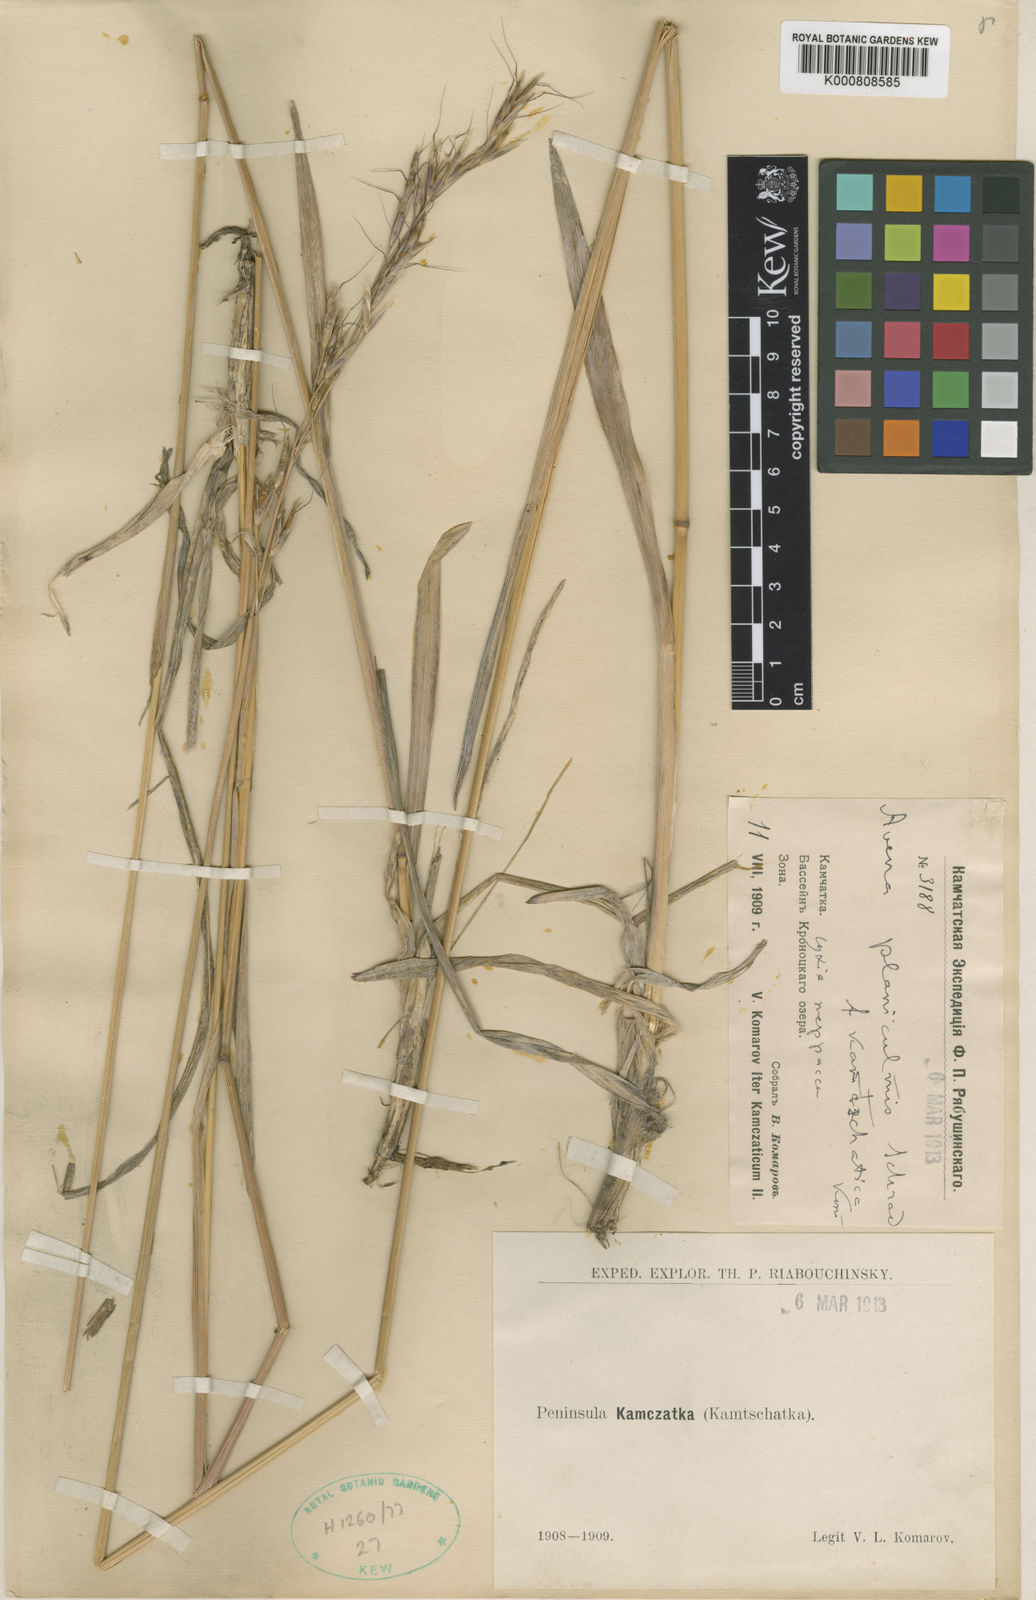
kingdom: Plantae
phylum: Tracheophyta
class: Liliopsida
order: Poales
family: Poaceae
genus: Helictochloa
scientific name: Helictochloa planiculmis
